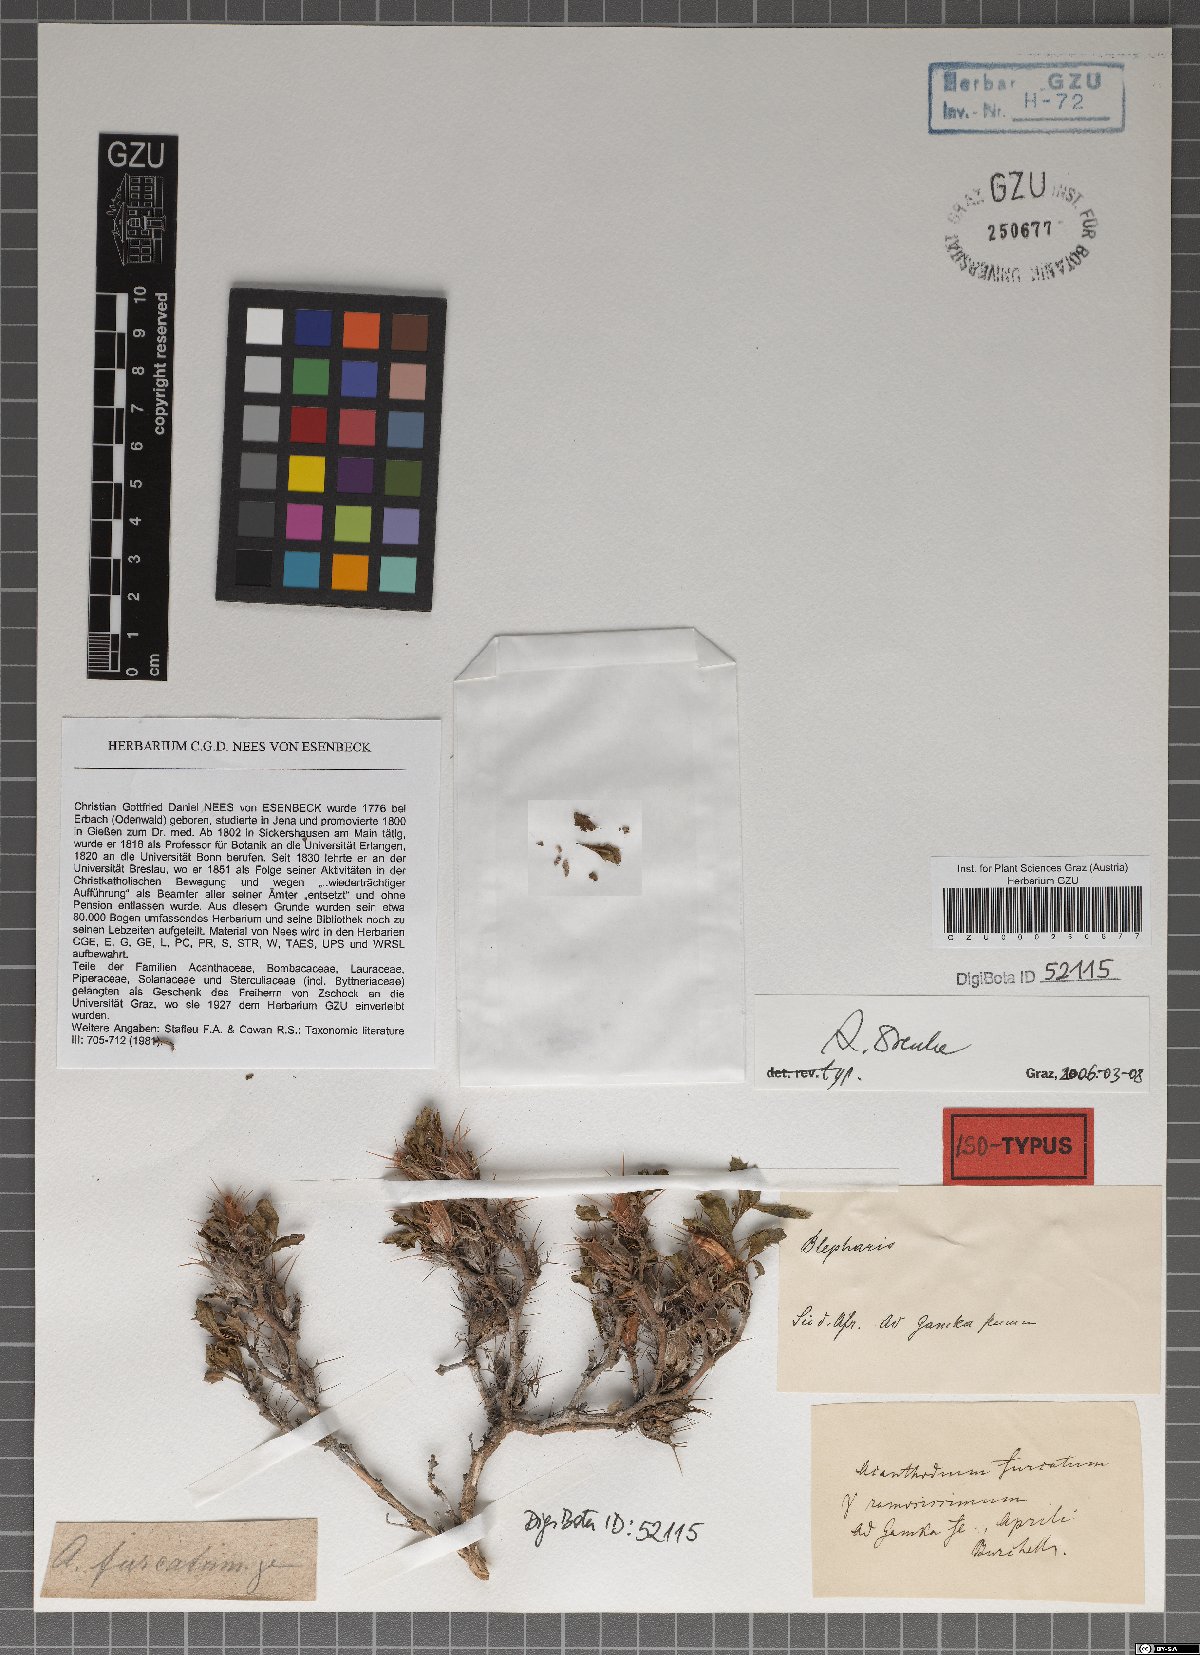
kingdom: Plantae
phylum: Tracheophyta
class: Magnoliopsida
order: Lamiales
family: Acanthaceae
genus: Blepharis
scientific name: Blepharis furcata
